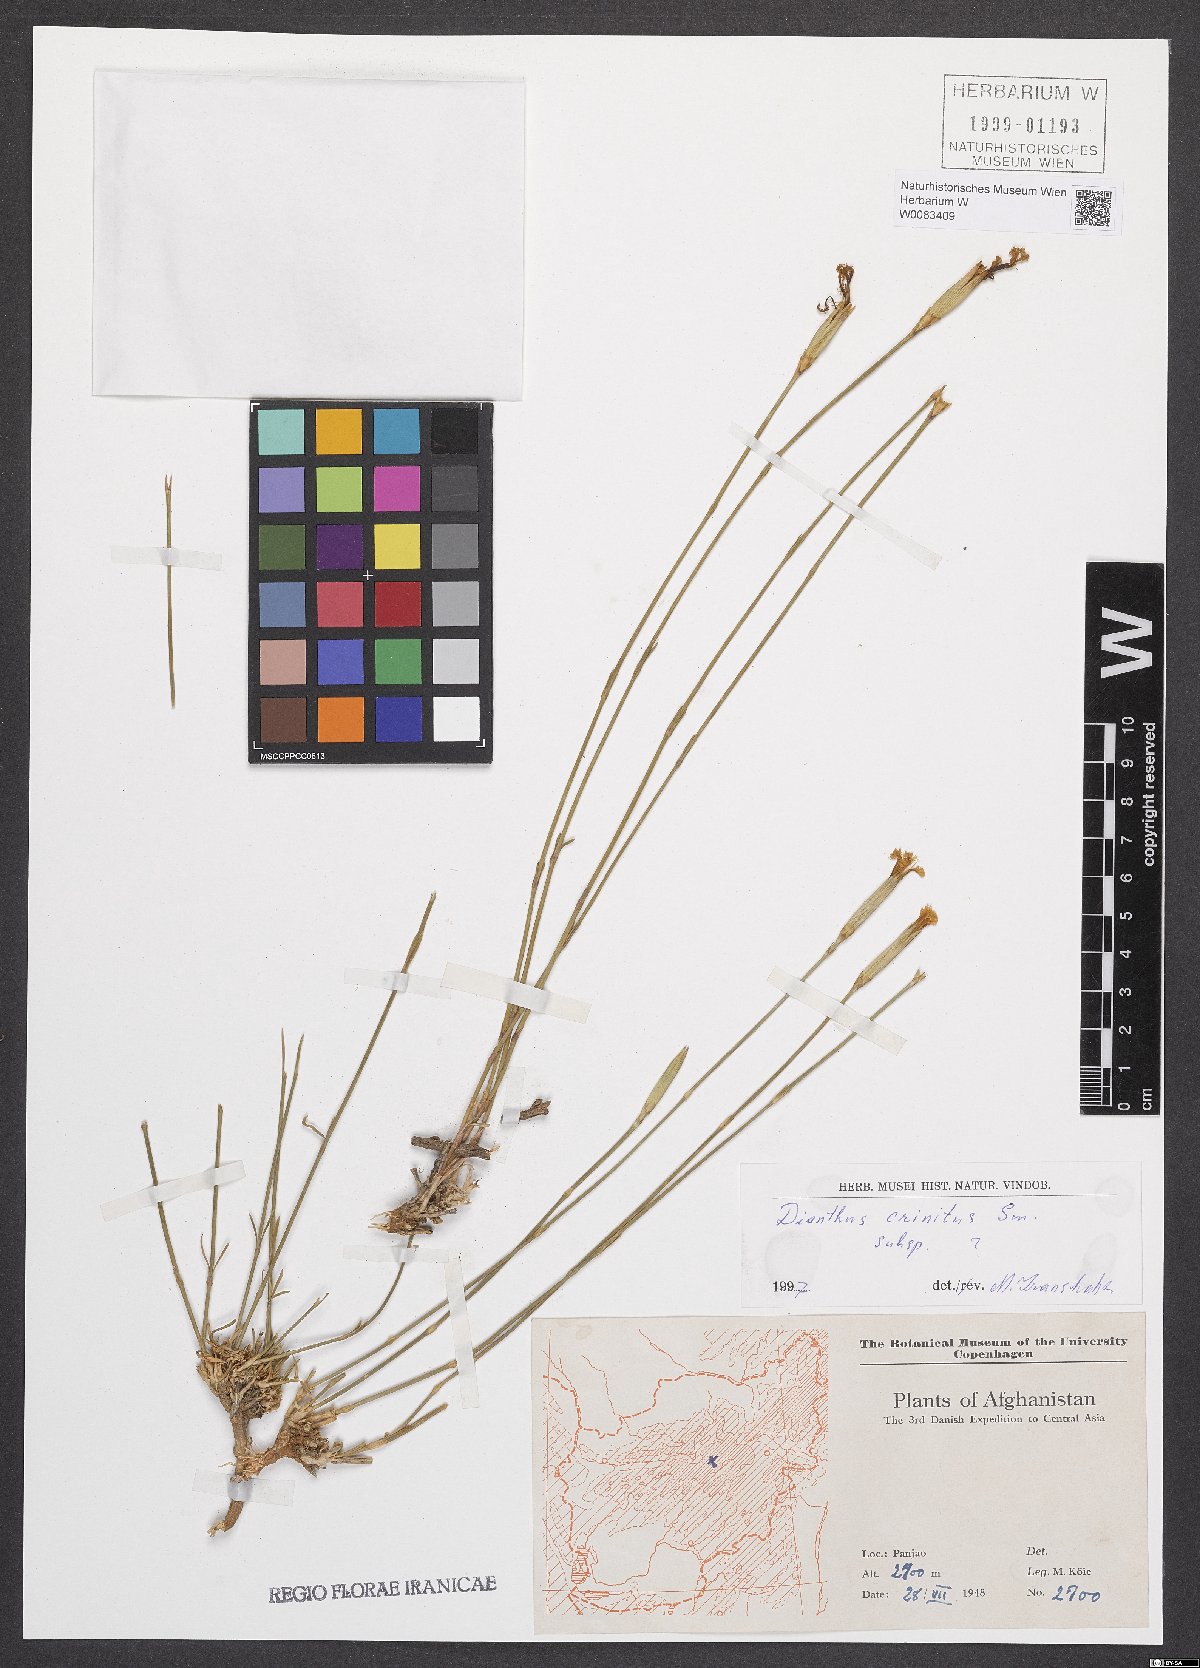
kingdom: Plantae
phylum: Tracheophyta
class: Magnoliopsida
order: Caryophyllales
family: Caryophyllaceae
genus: Dianthus
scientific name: Dianthus crinitus
